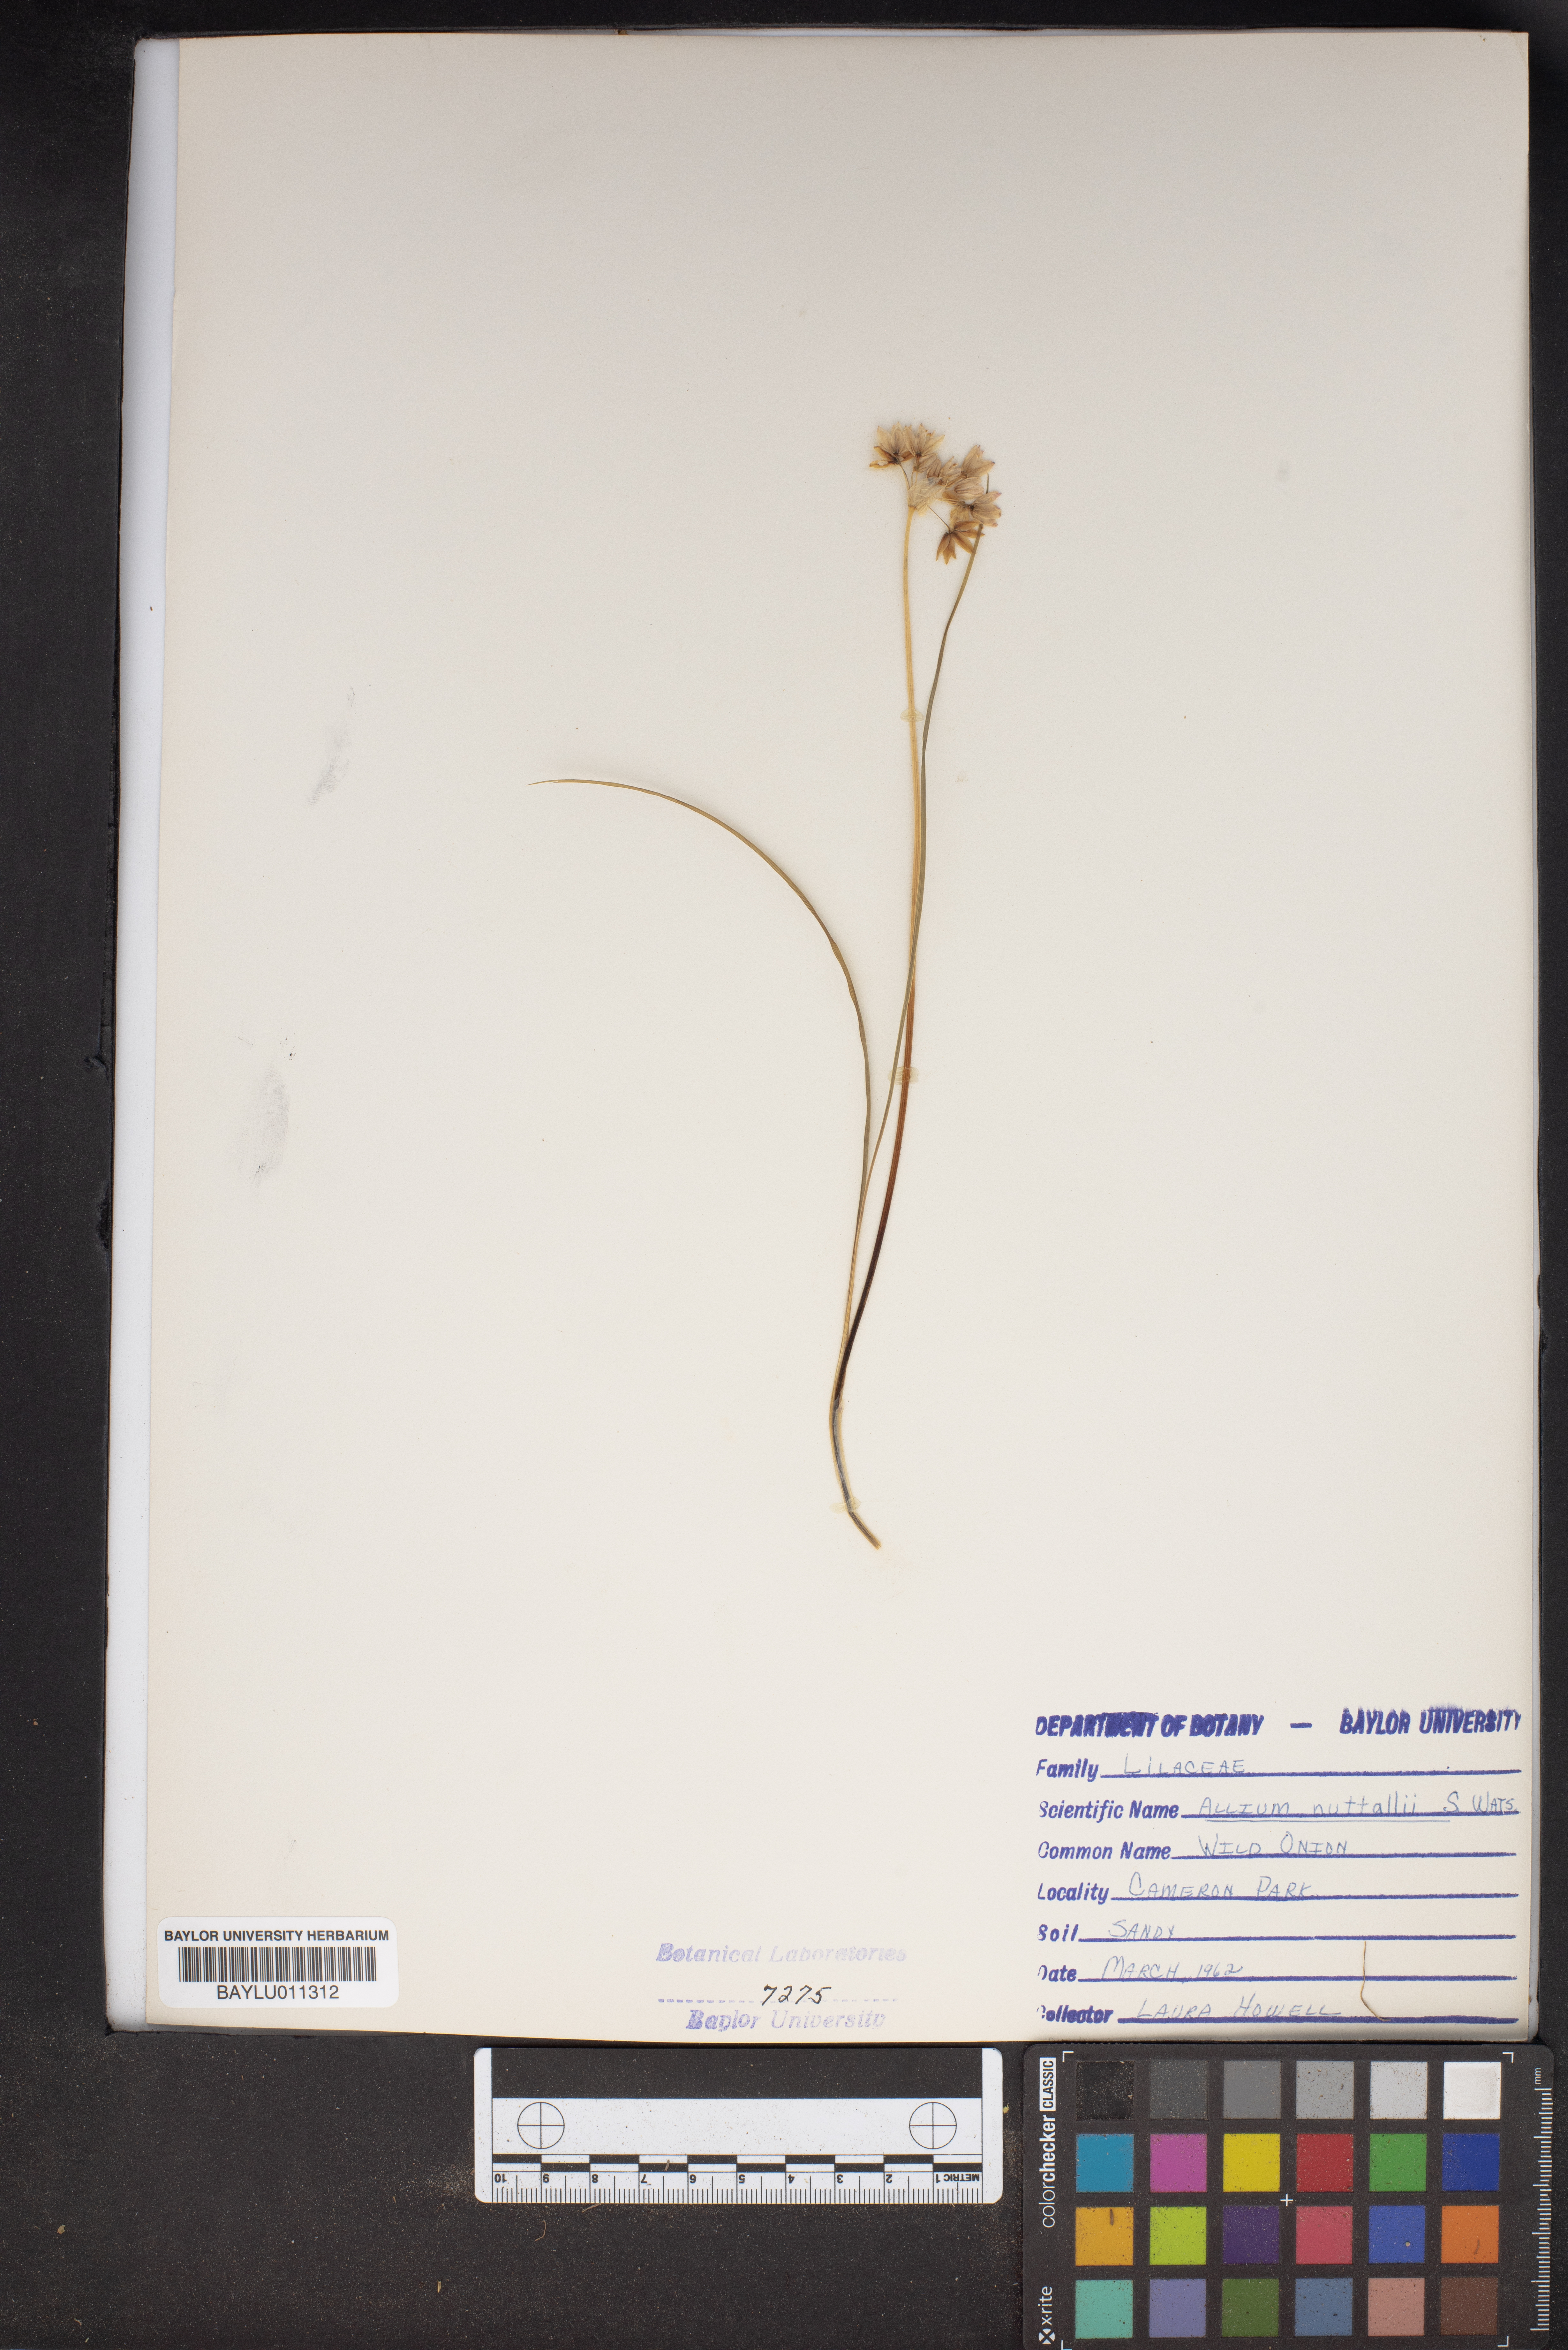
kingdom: Plantae
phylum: Tracheophyta
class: Liliopsida
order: Asparagales
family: Amaryllidaceae
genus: Allium
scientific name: Allium drummondii
